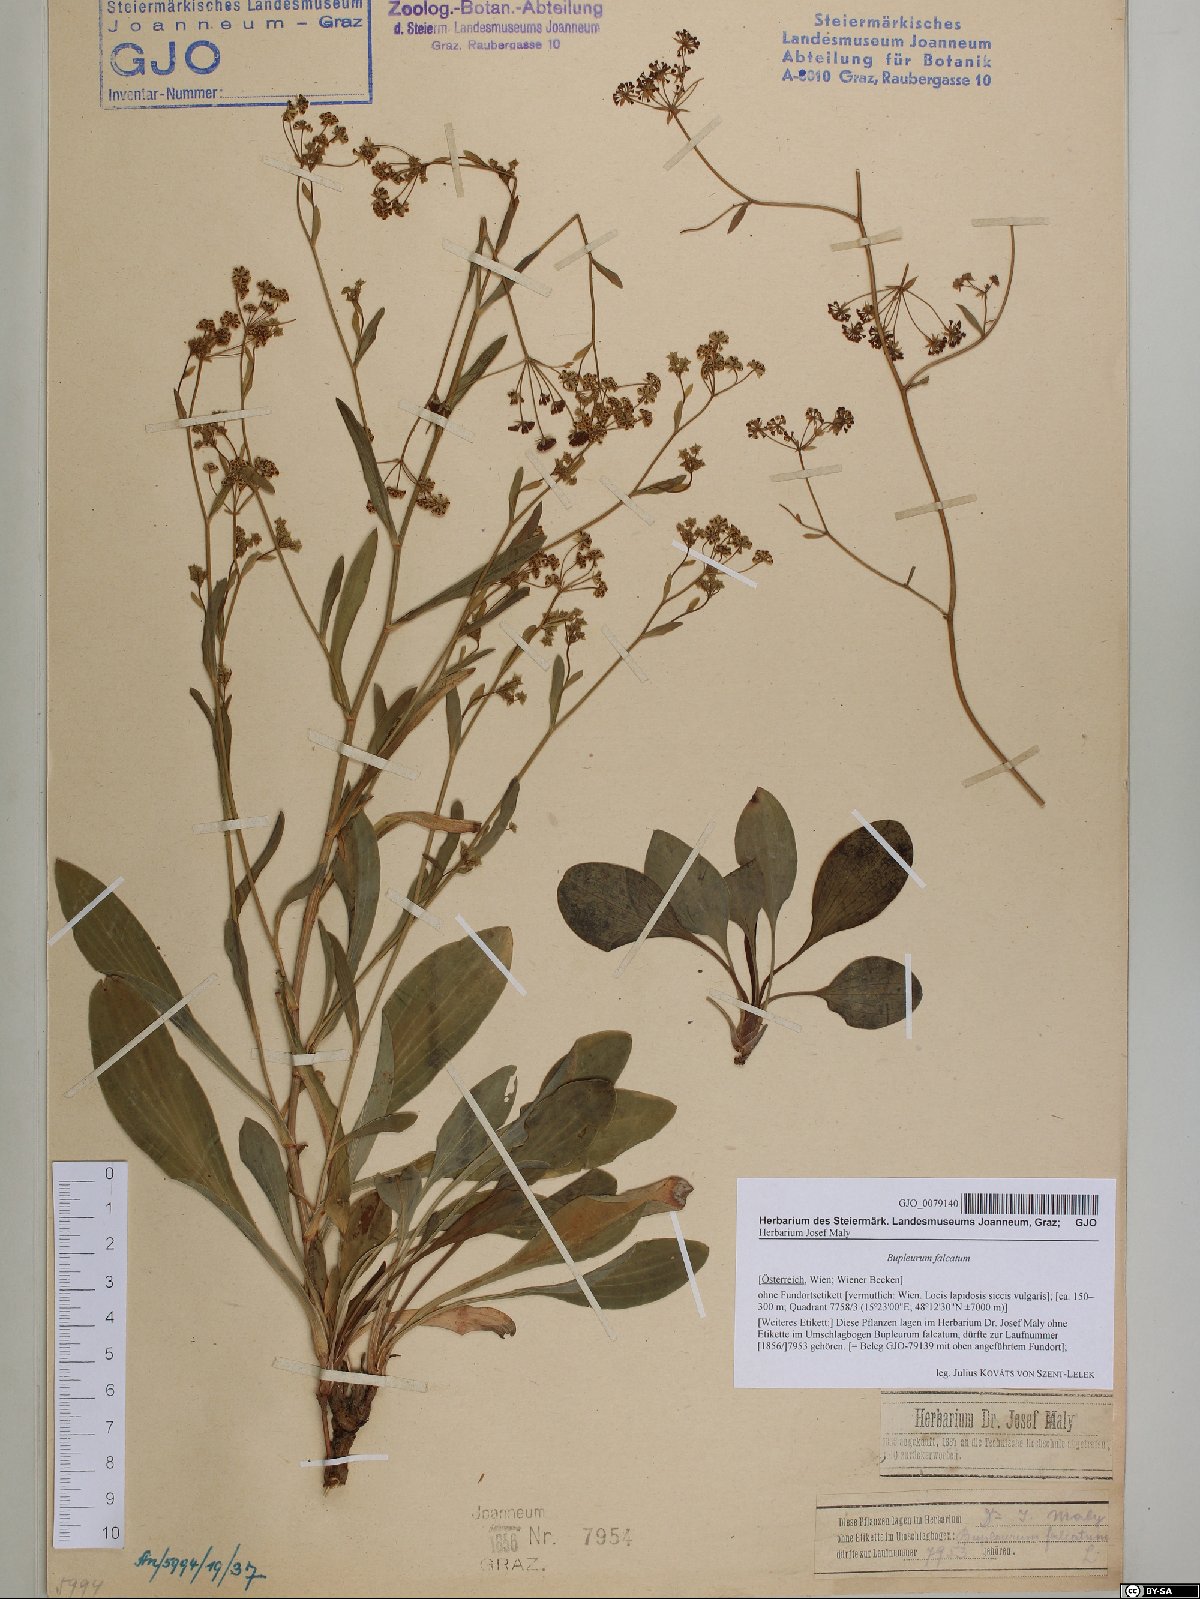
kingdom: Plantae
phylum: Tracheophyta
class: Magnoliopsida
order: Apiales
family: Apiaceae
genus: Bupleurum
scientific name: Bupleurum falcatum
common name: Sickle-leaved hare's-ear
